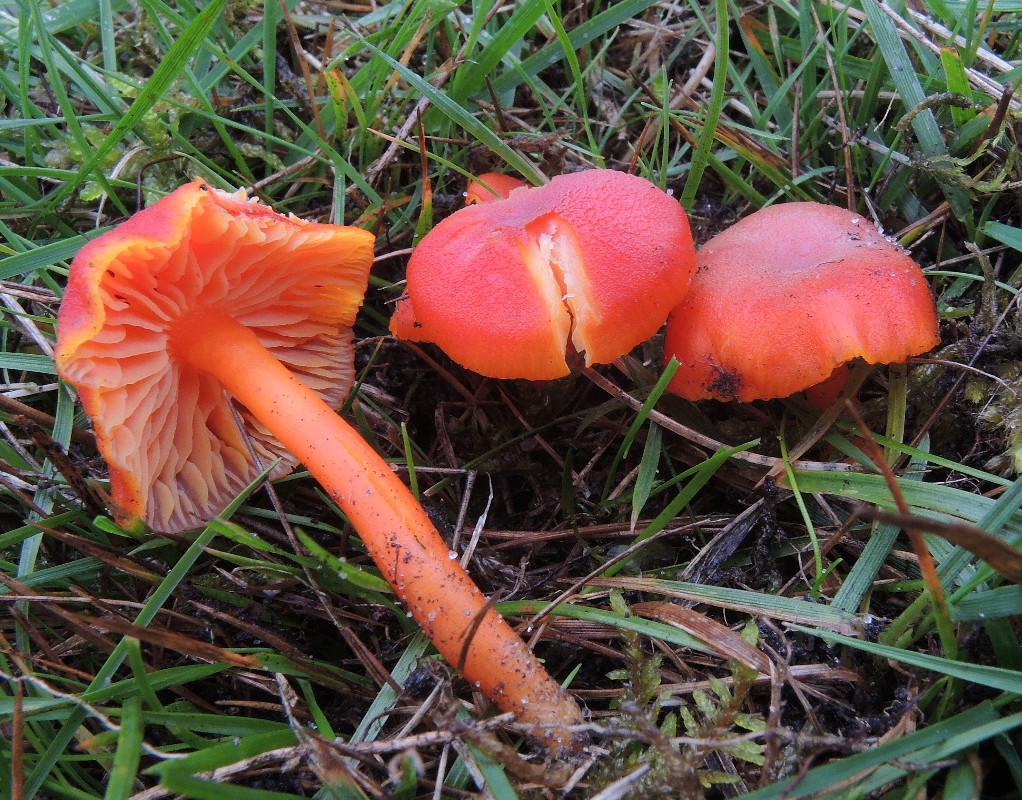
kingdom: Fungi
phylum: Basidiomycota
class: Agaricomycetes
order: Agaricales
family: Hygrophoraceae
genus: Hygrocybe
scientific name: Hygrocybe miniata
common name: mønje-vokshat
